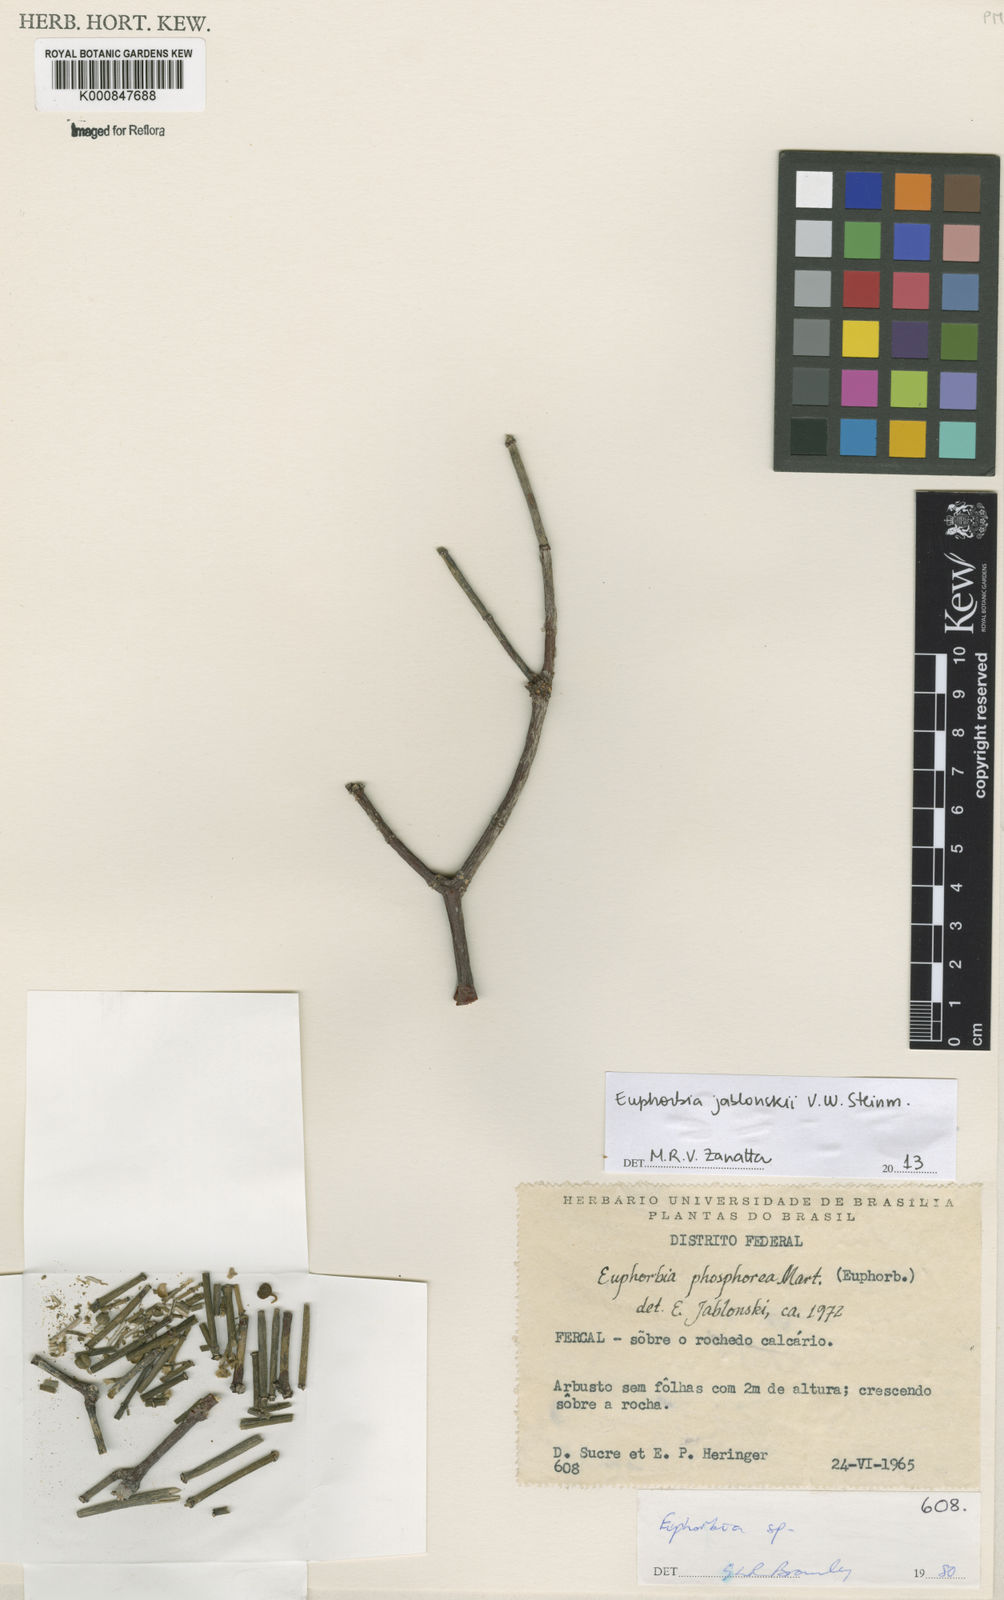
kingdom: Plantae
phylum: Tracheophyta
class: Magnoliopsida
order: Malpighiales
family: Euphorbiaceae
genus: Euphorbia
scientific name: Euphorbia jablonskii
